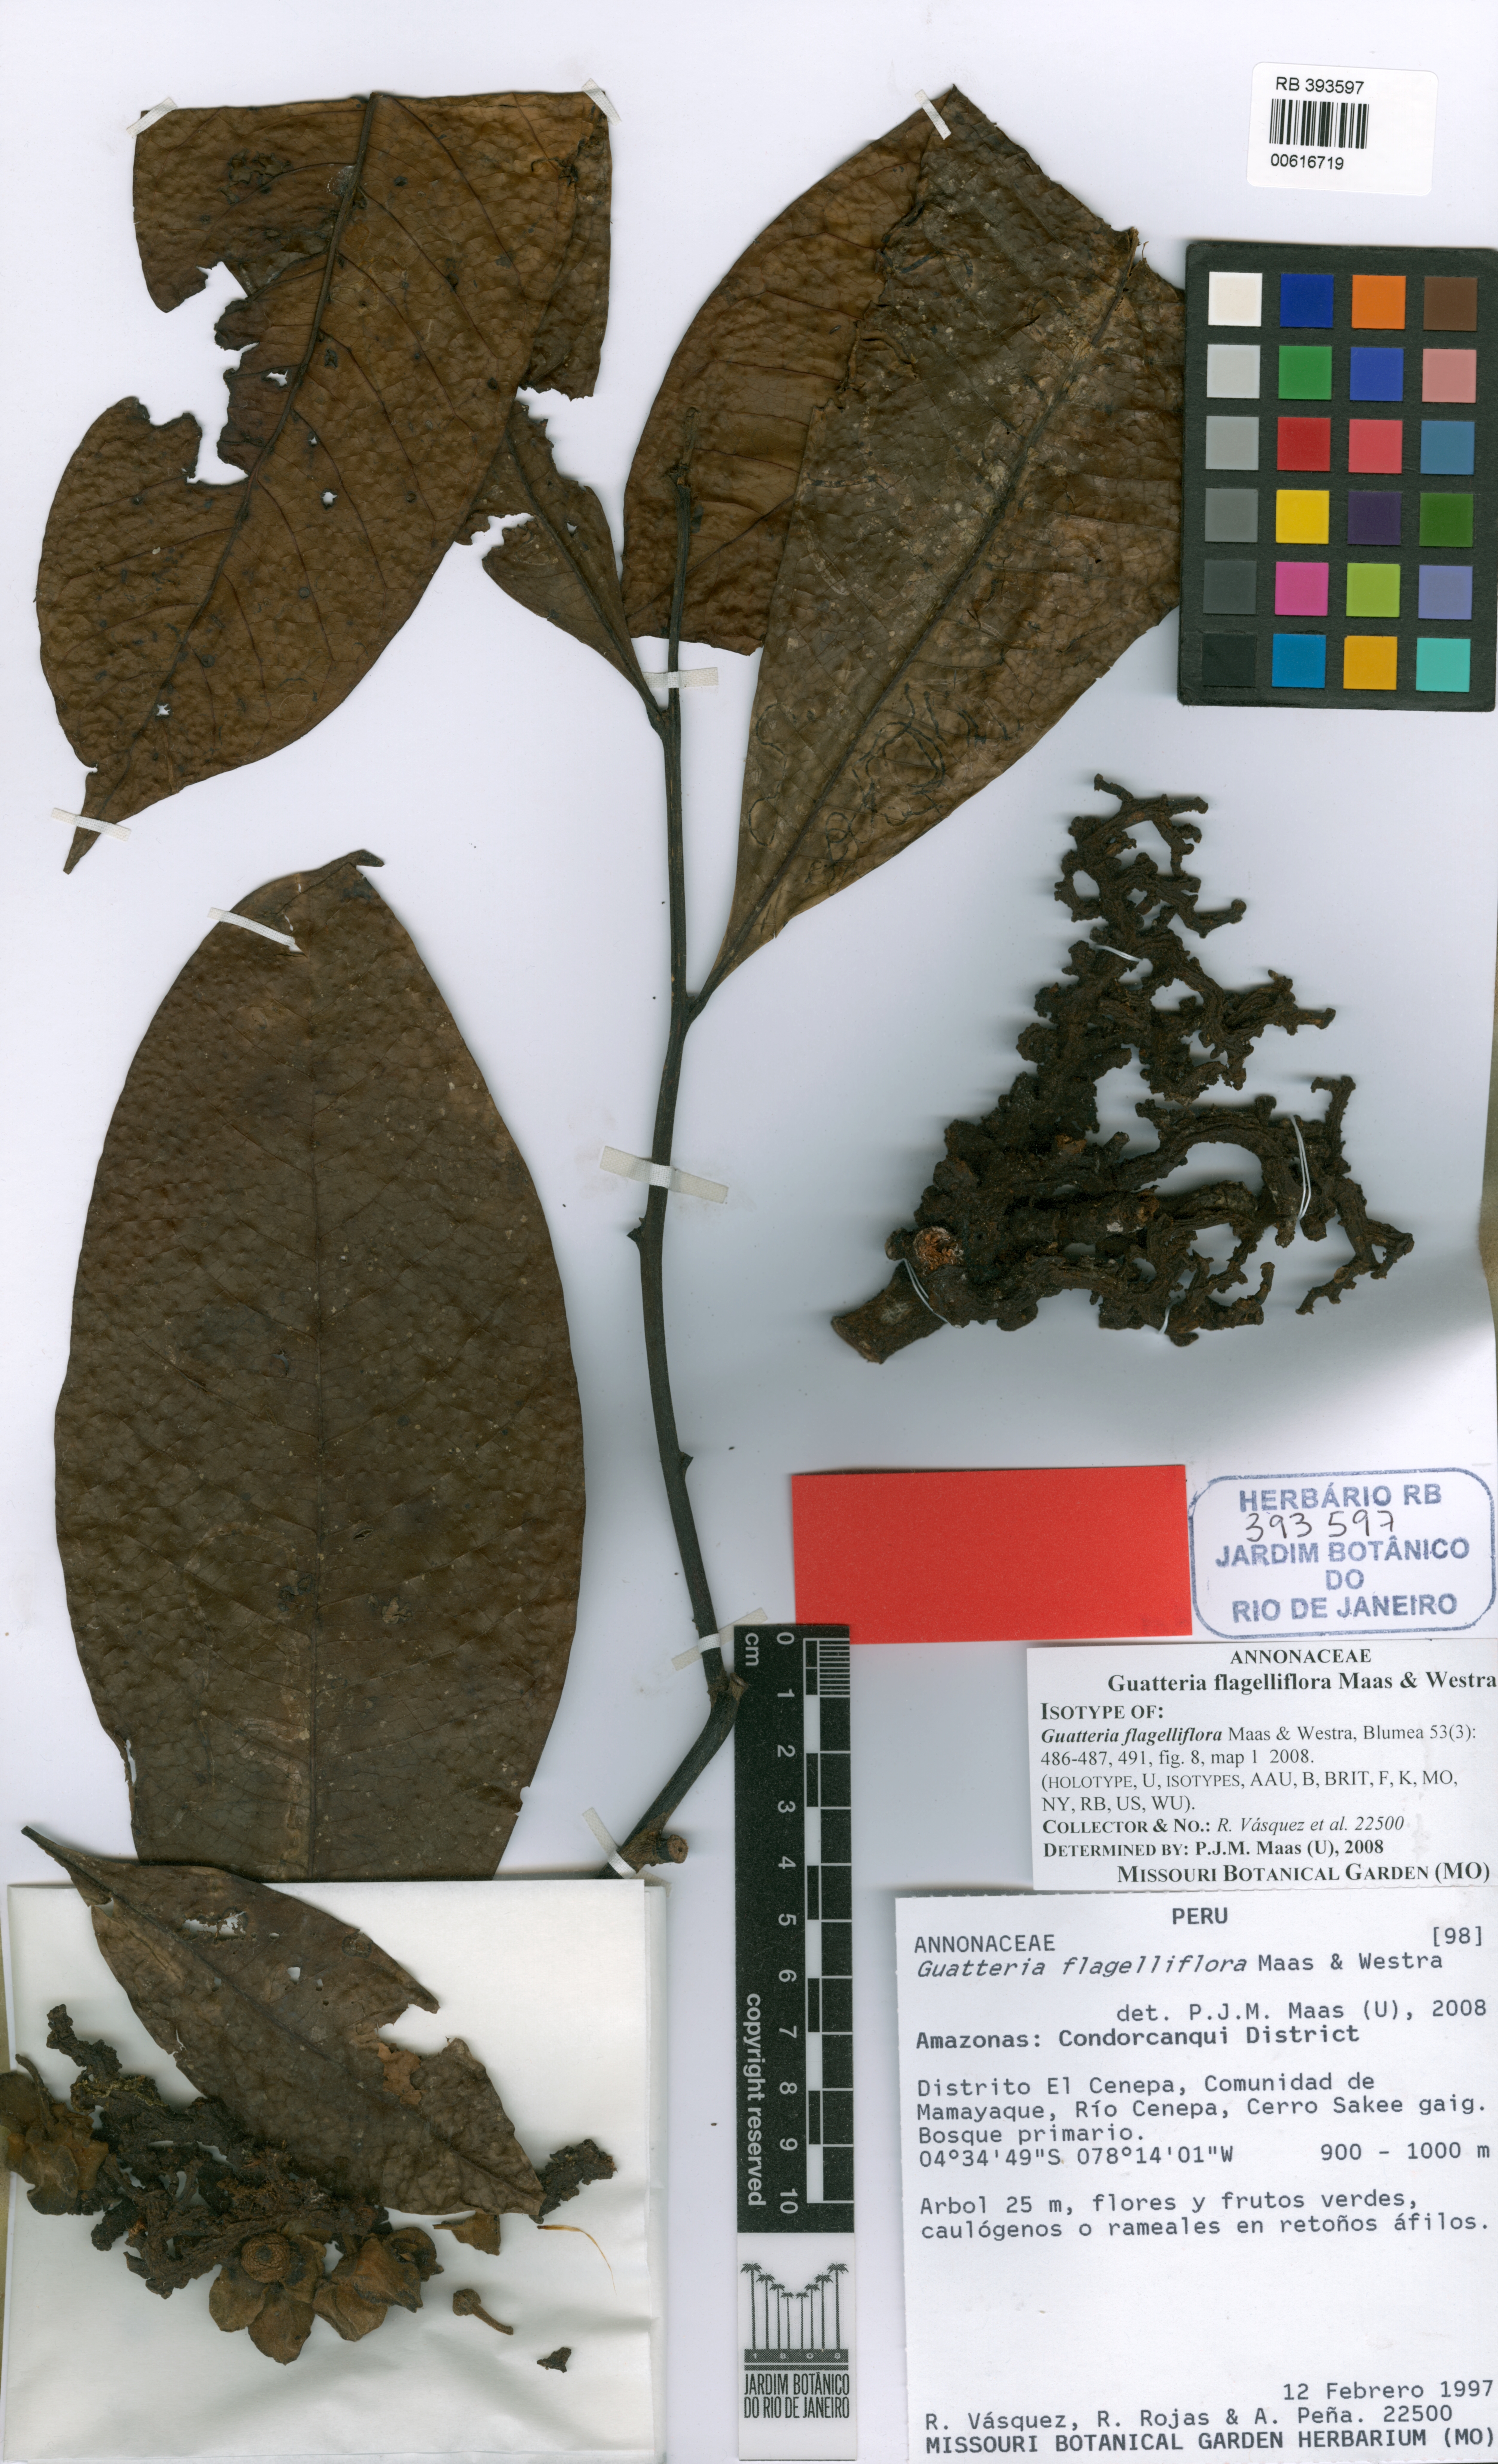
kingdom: Plantae
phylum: Tracheophyta
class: Magnoliopsida
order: Magnoliales
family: Annonaceae
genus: Guatteria
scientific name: Guatteria flagelliflora
